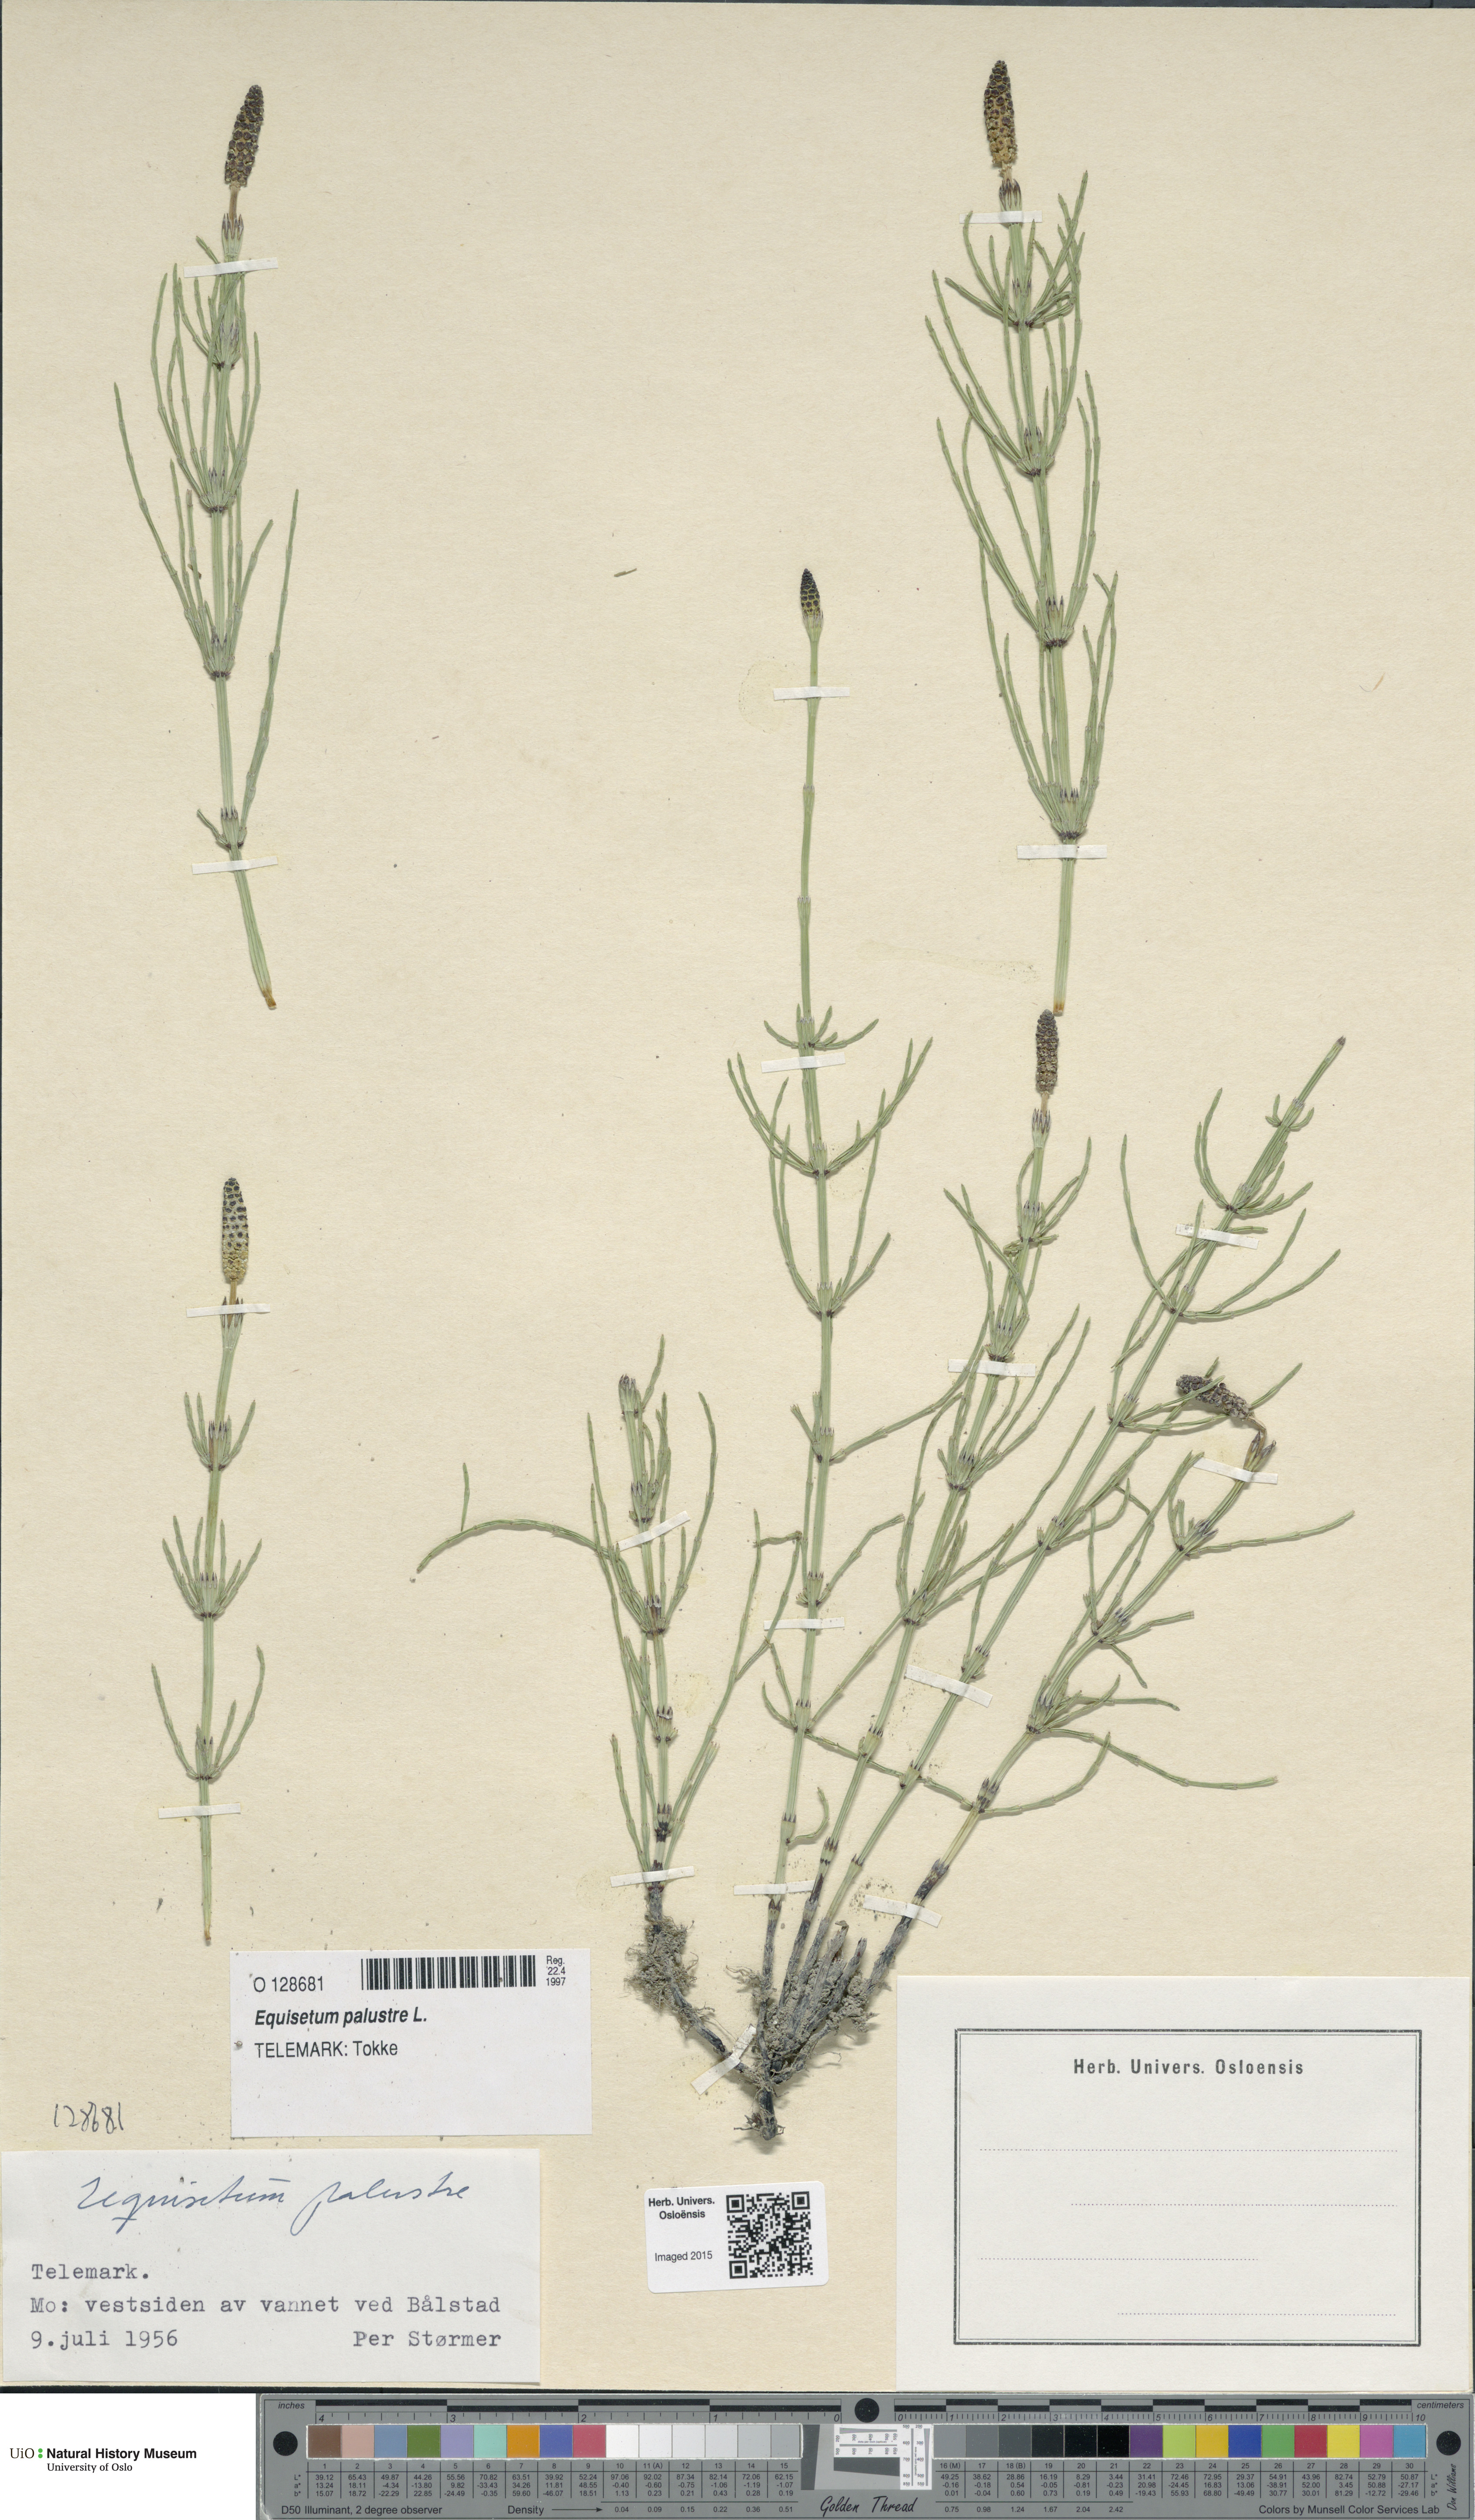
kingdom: Plantae
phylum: Tracheophyta
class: Polypodiopsida
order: Equisetales
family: Equisetaceae
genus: Equisetum
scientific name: Equisetum palustre
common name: Marsh horsetail
